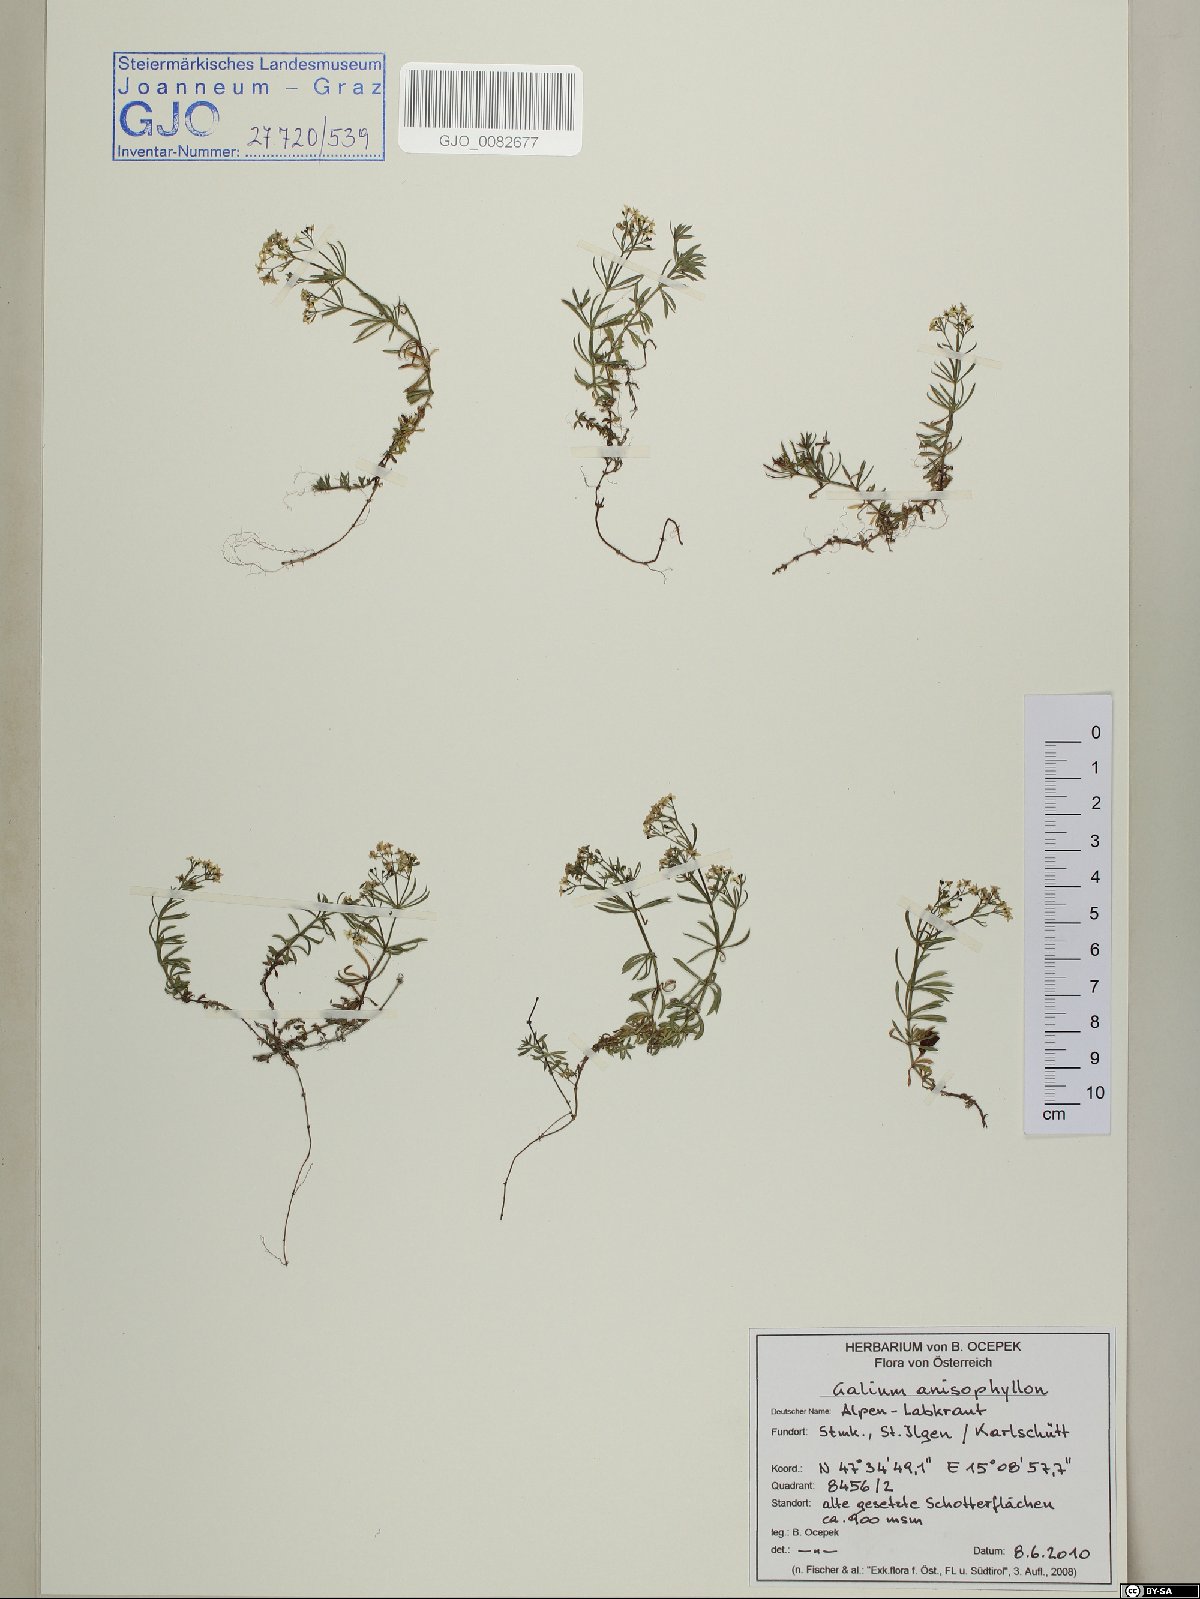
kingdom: Plantae
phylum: Tracheophyta
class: Magnoliopsida
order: Gentianales
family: Rubiaceae
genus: Galium
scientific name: Galium anisophyllon
